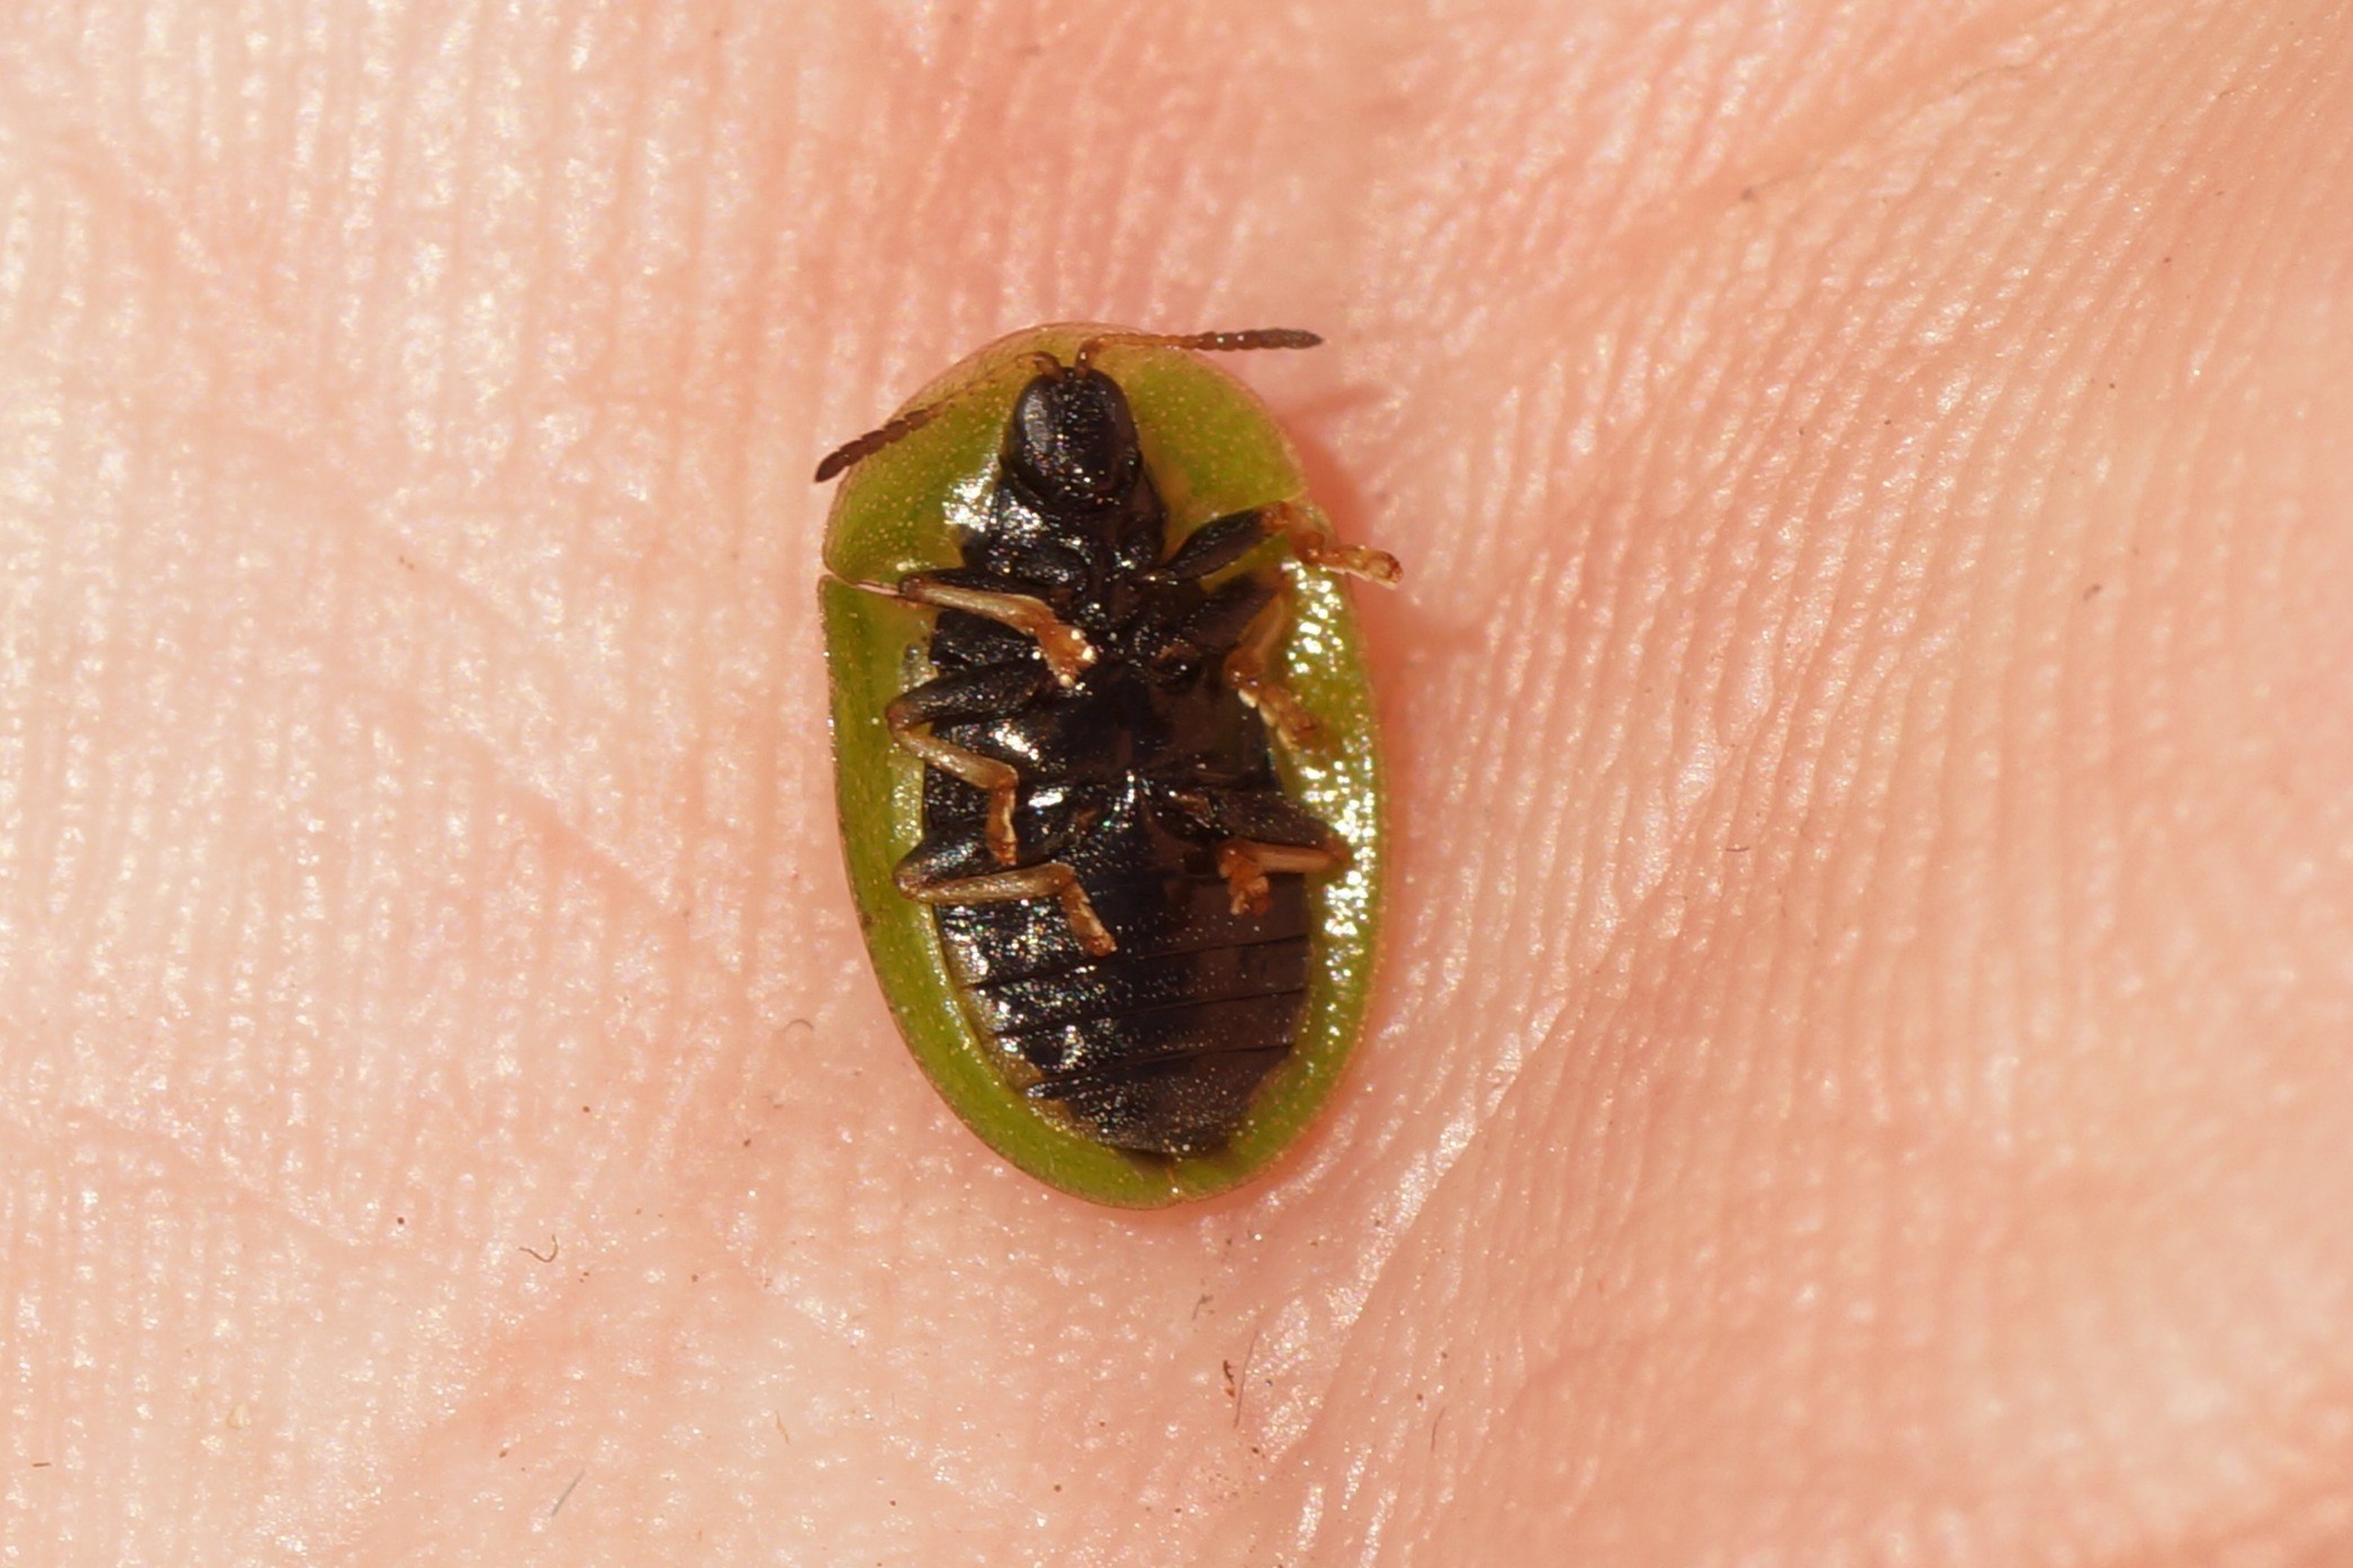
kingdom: Animalia
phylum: Arthropoda
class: Insecta
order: Coleoptera
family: Chrysomelidae
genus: Cassida
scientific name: Cassida rubiginosa
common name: Tidselskjoldbille
